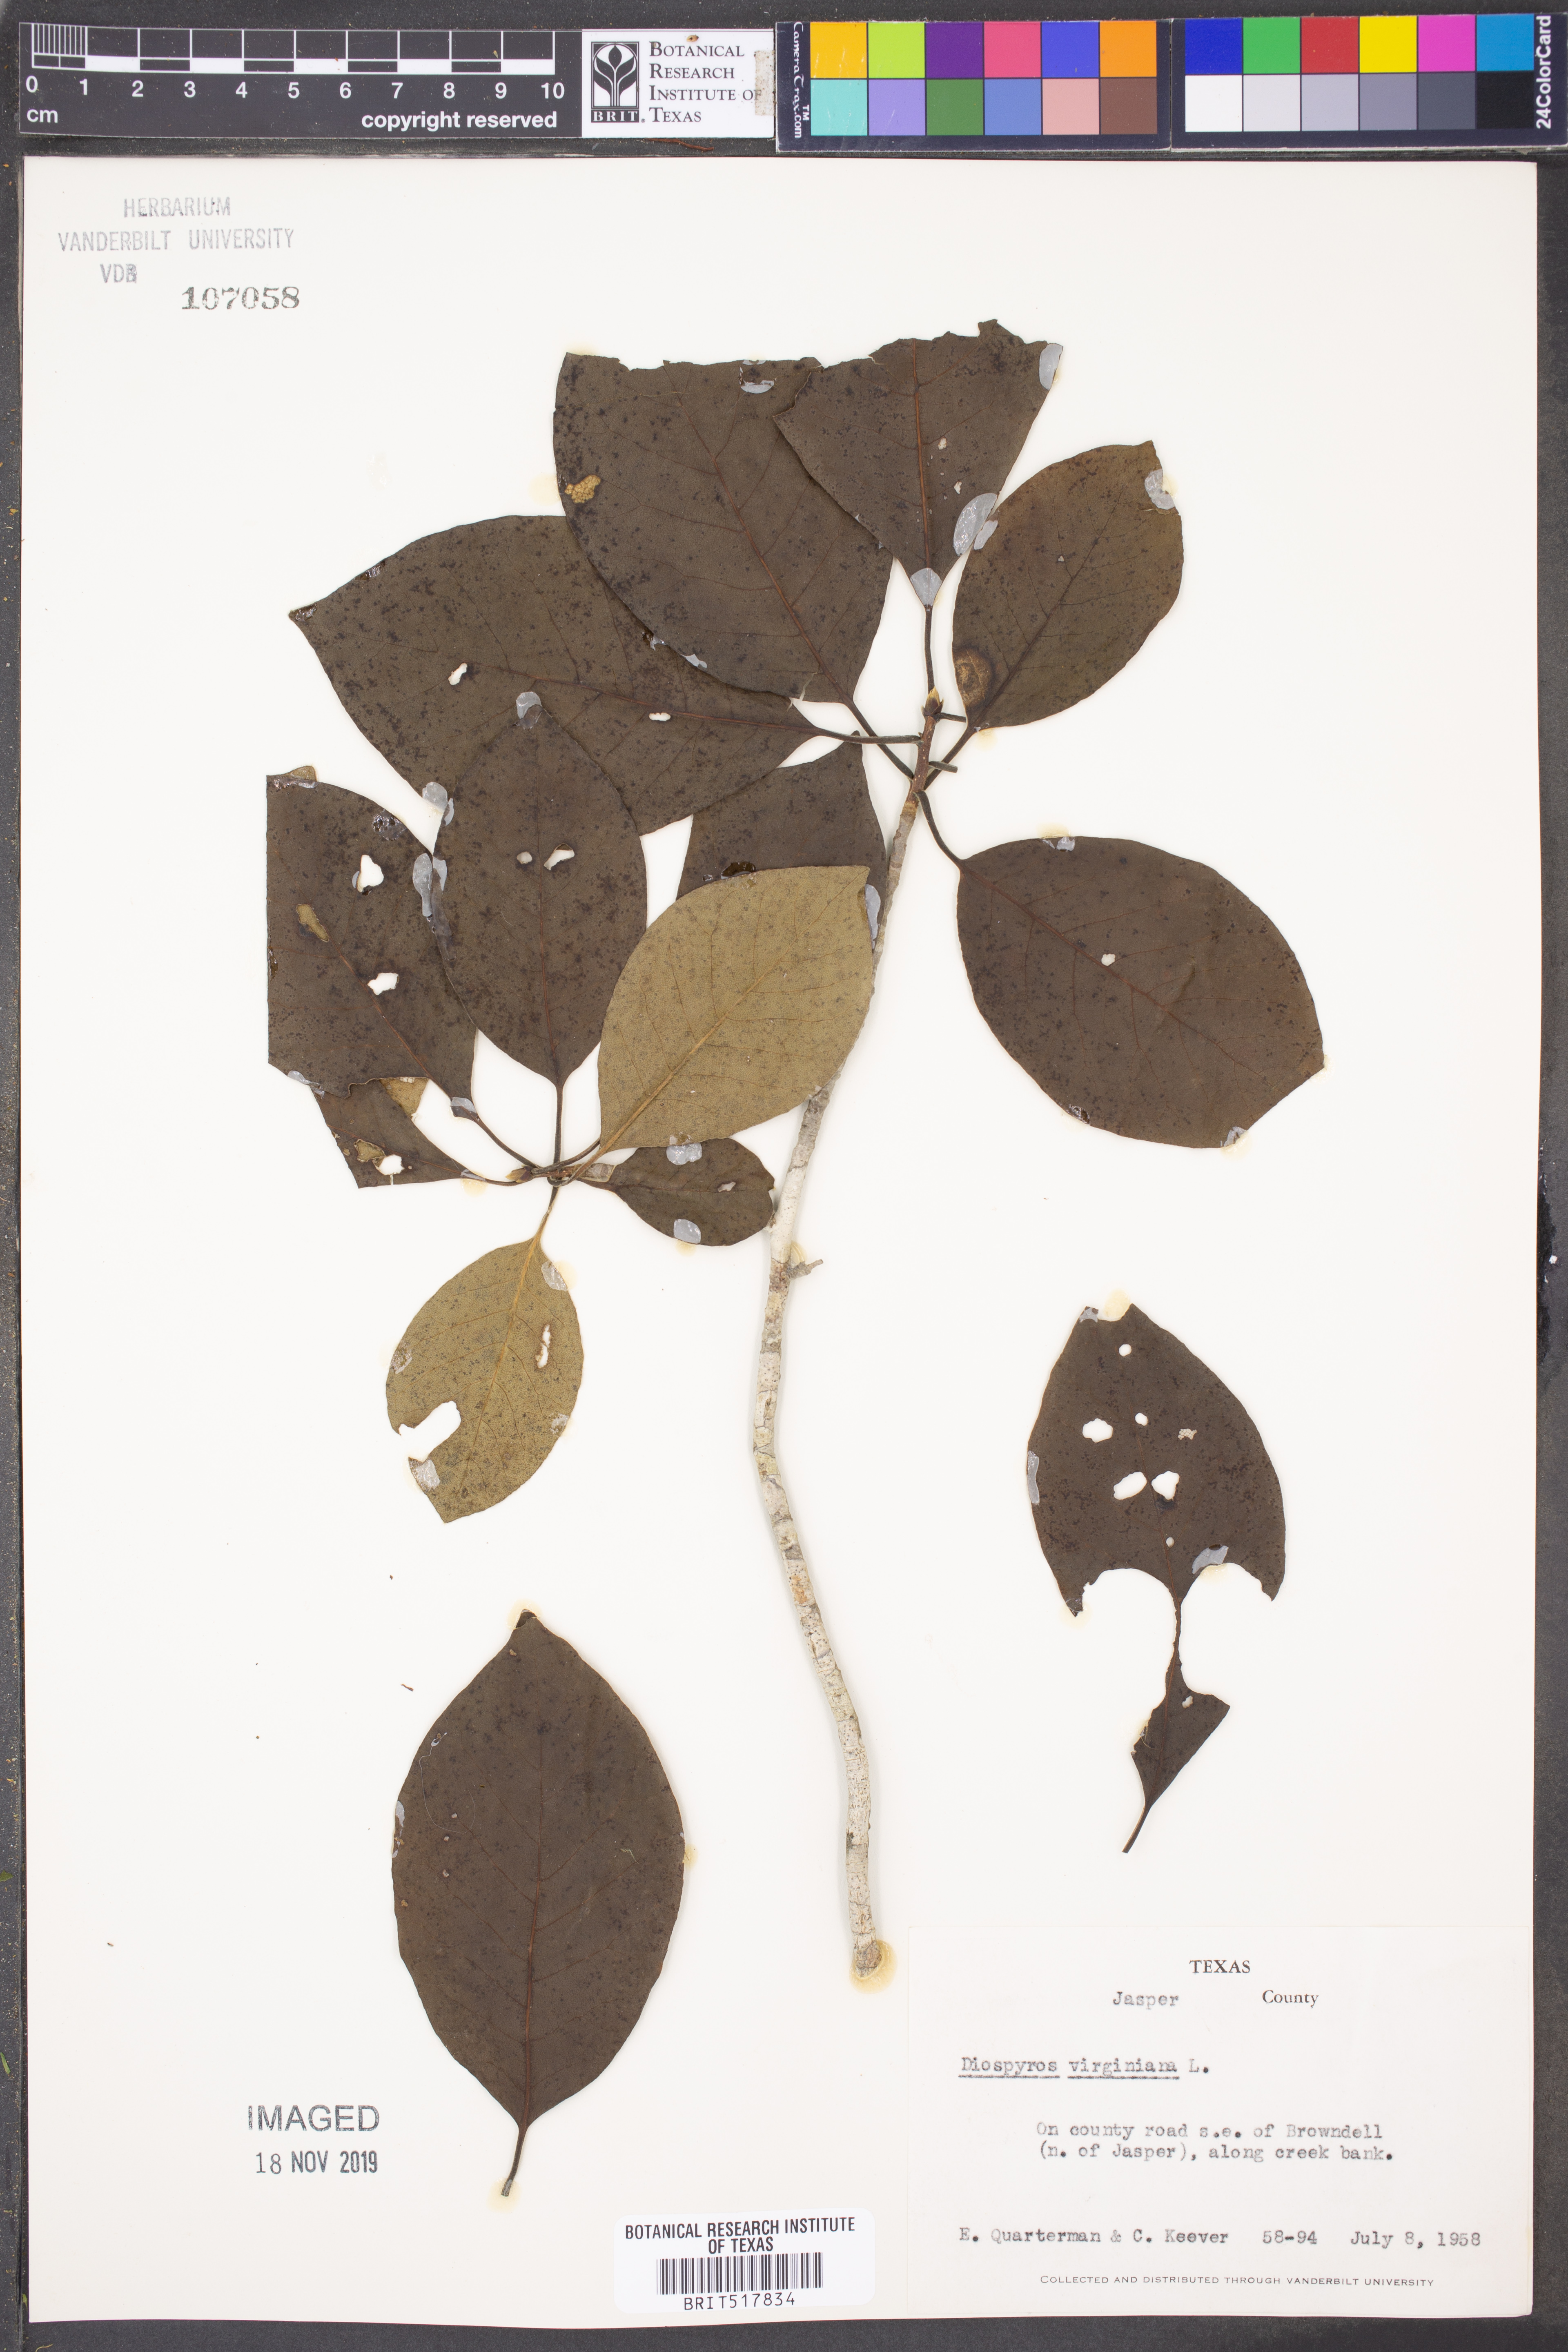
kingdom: Plantae
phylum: Tracheophyta
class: Magnoliopsida
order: Ericales
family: Ebenaceae
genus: Diospyros
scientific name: Diospyros virginiana
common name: Persimmon
